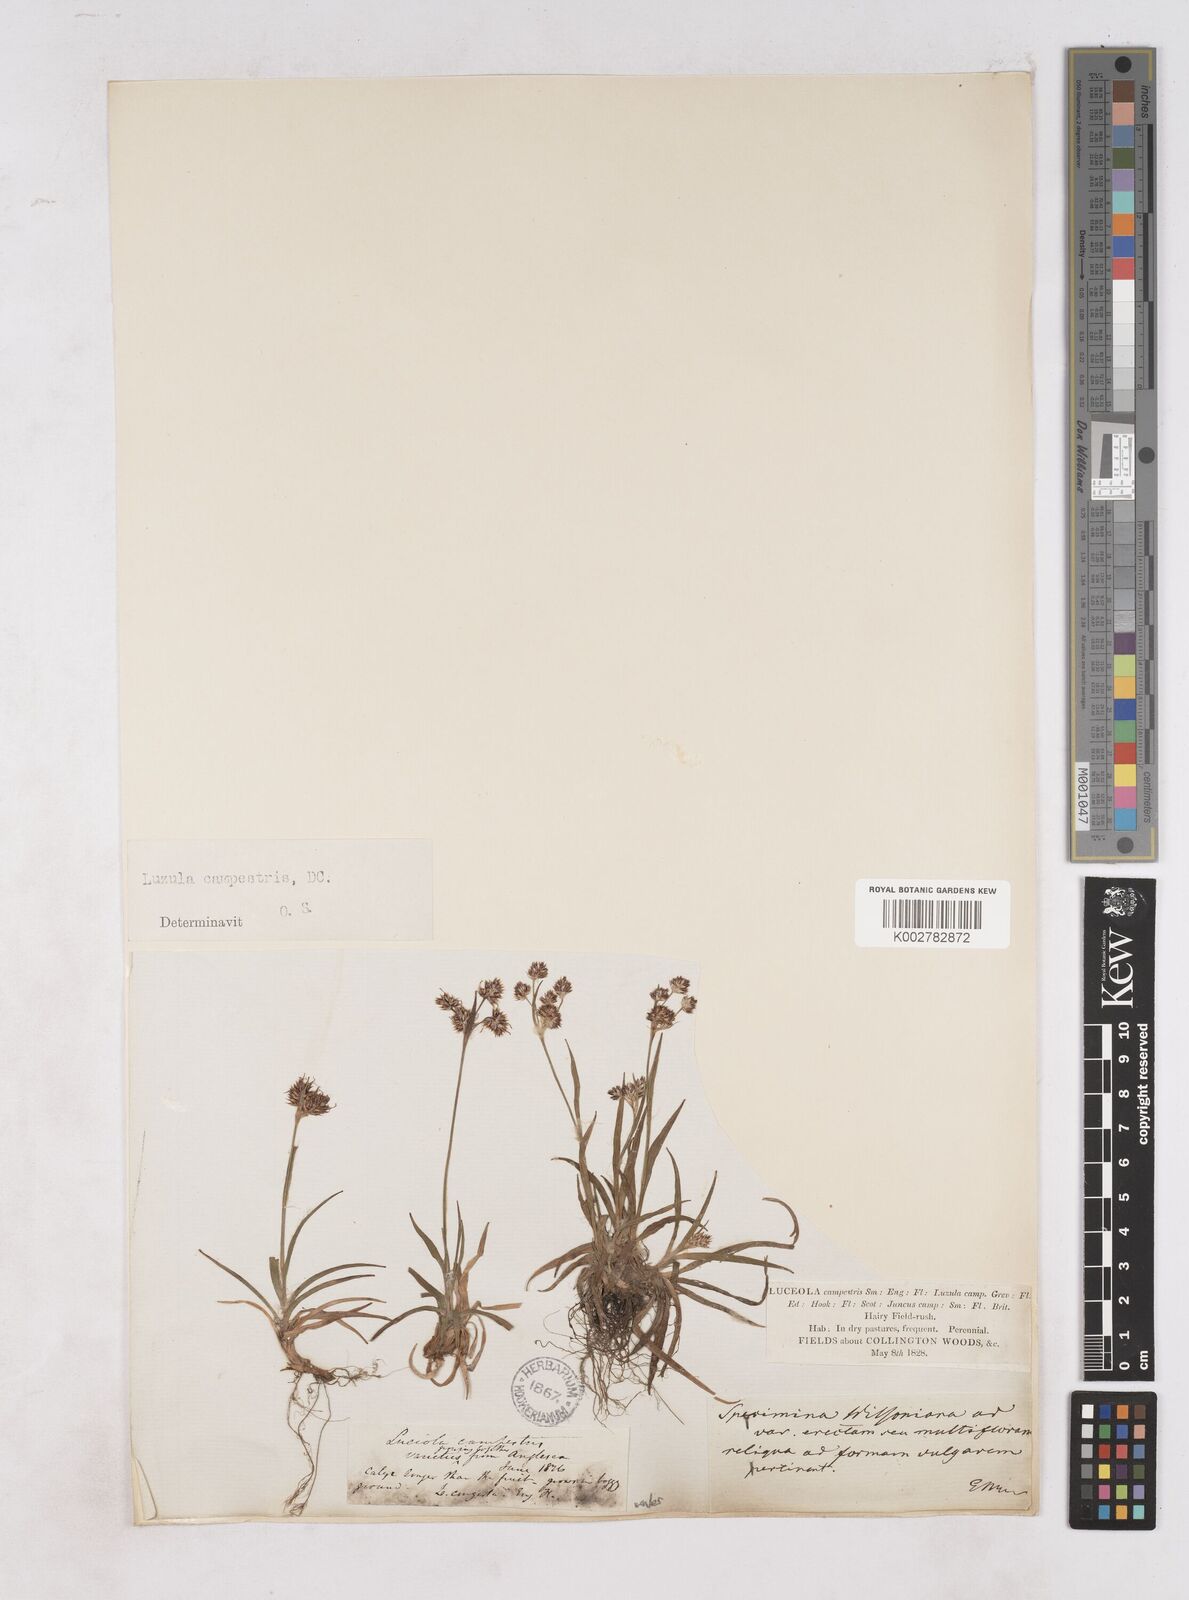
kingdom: Plantae
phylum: Tracheophyta
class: Liliopsida
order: Poales
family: Juncaceae
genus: Luzula
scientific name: Luzula campestris
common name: Field wood-rush
